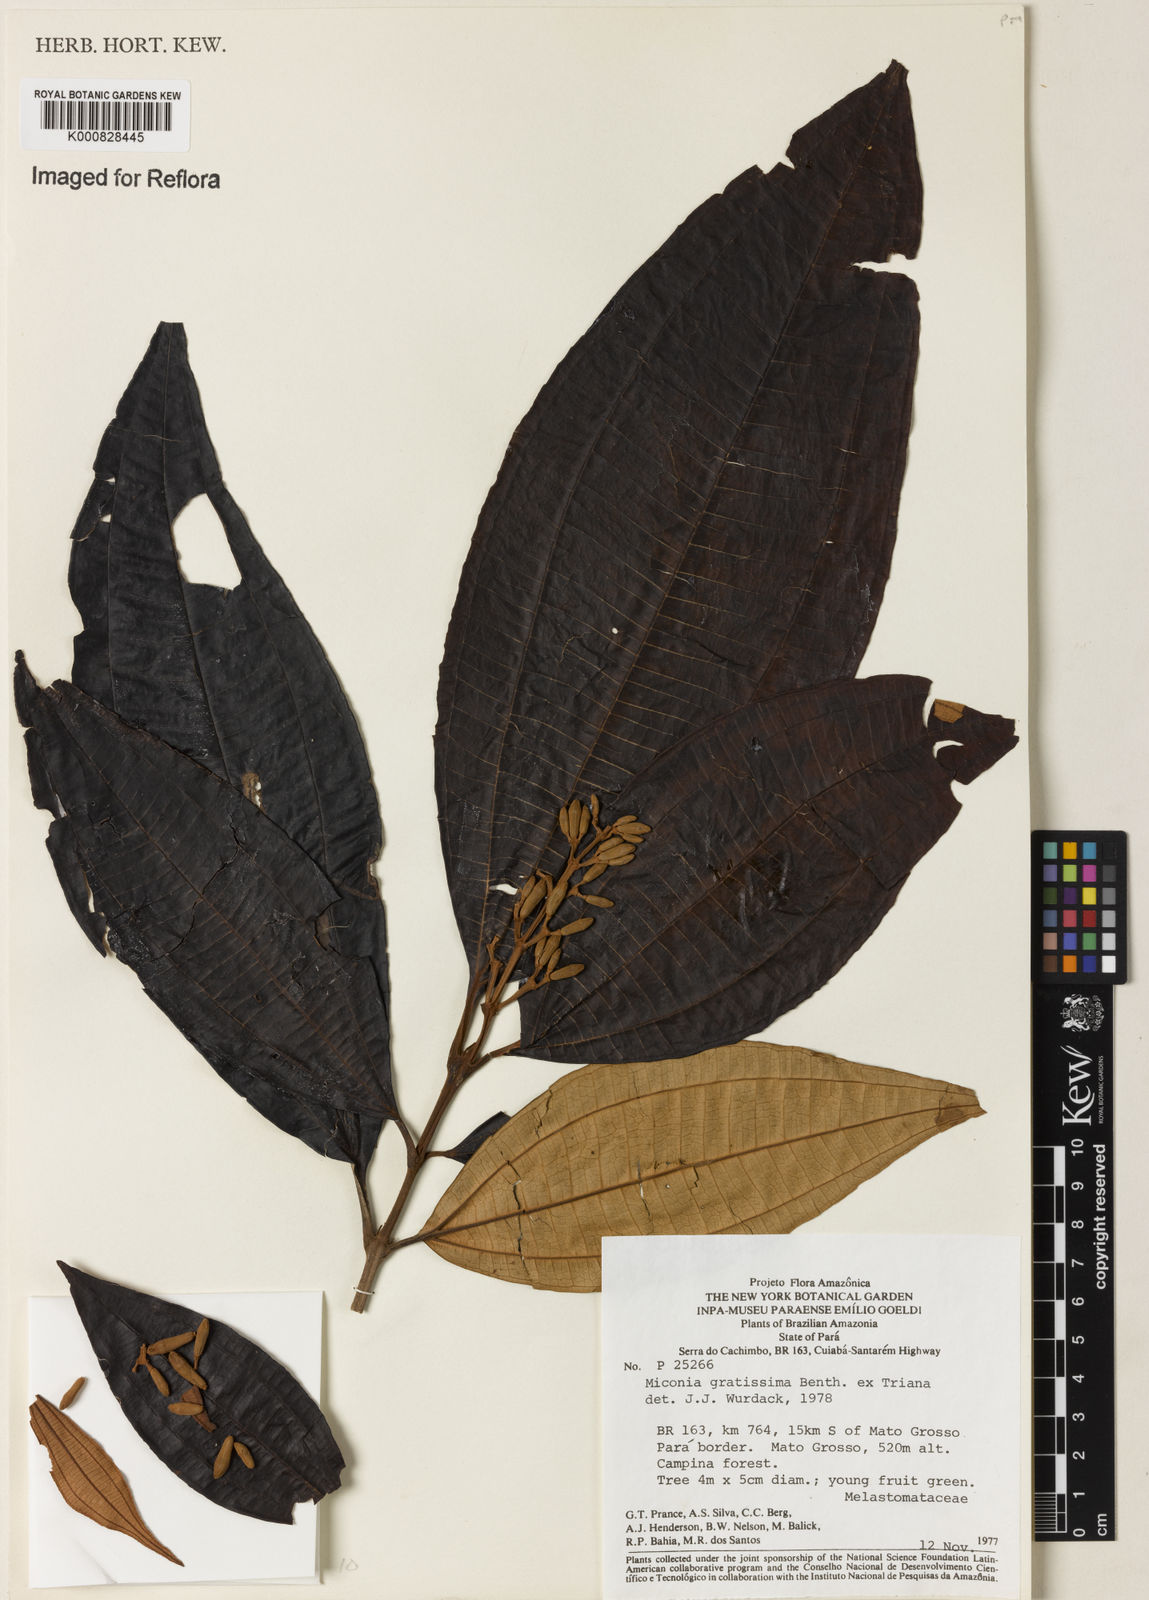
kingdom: Plantae
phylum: Tracheophyta
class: Magnoliopsida
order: Myrtales
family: Melastomataceae
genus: Miconia
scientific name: Miconia gratissima
